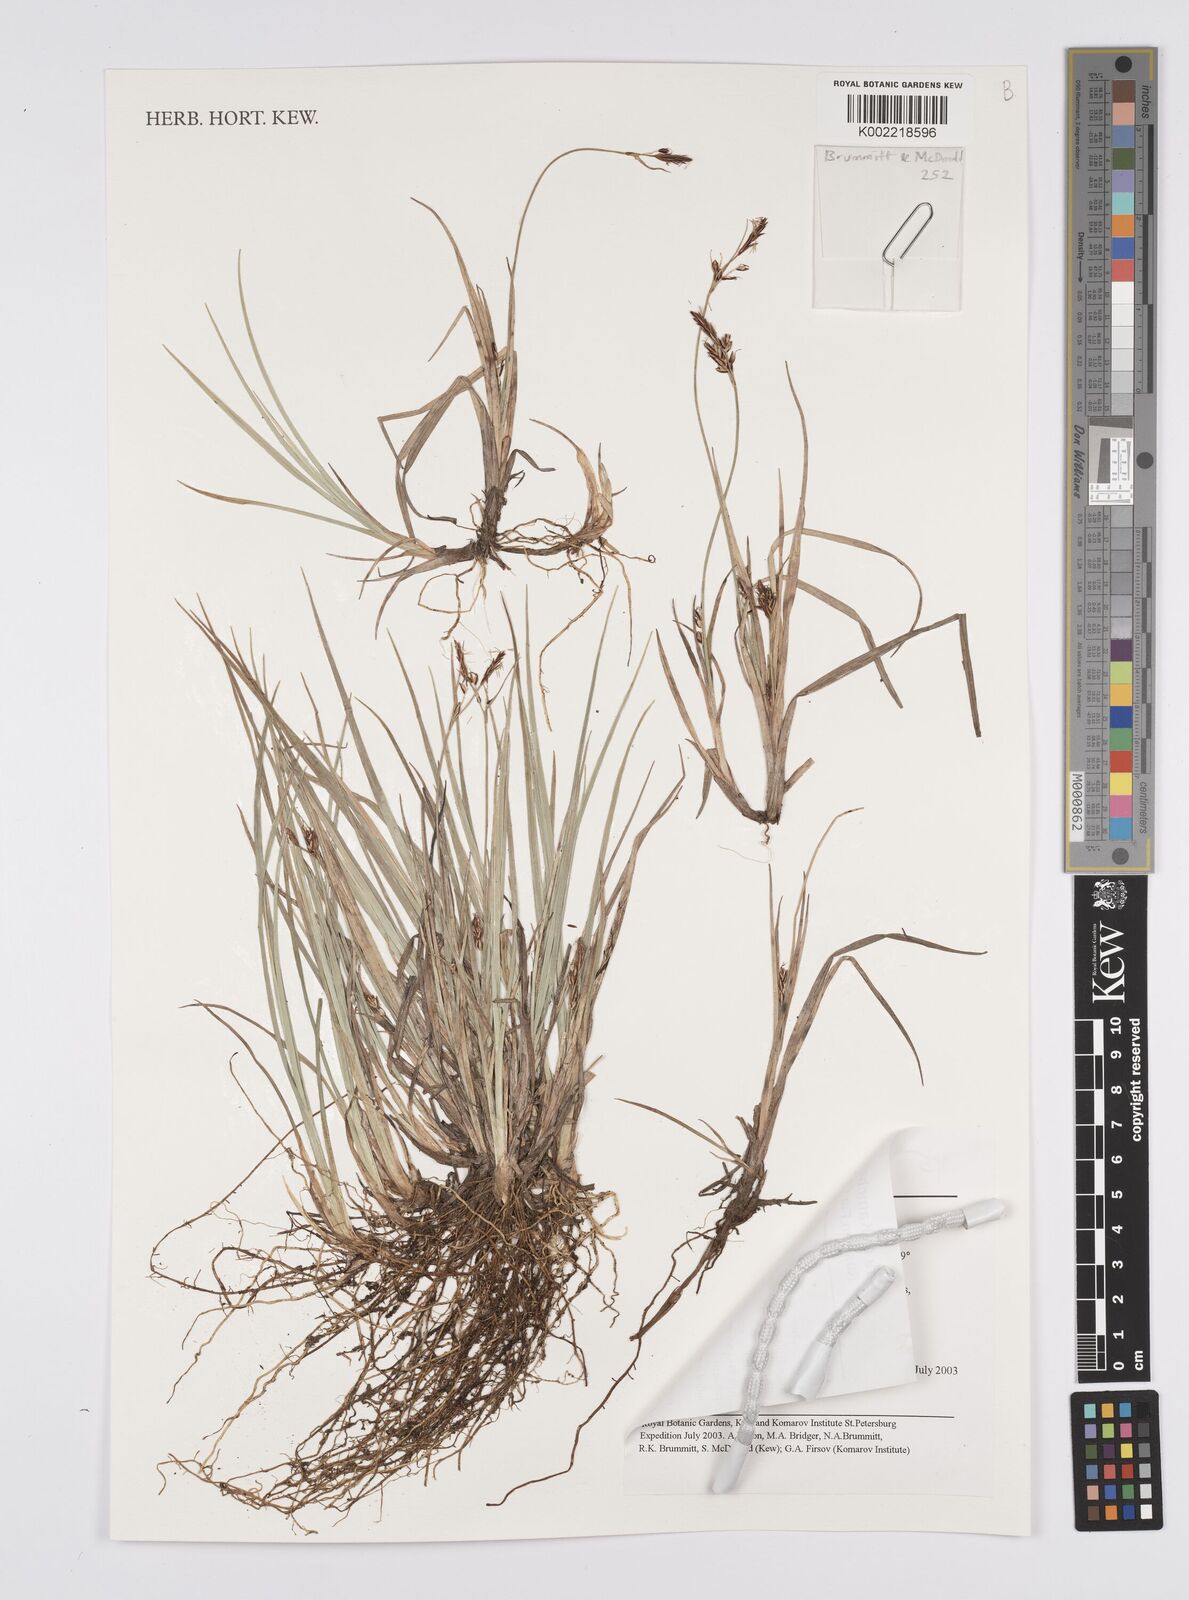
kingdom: Plantae
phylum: Tracheophyta
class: Liliopsida
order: Poales
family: Cyperaceae
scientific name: Cyperaceae
